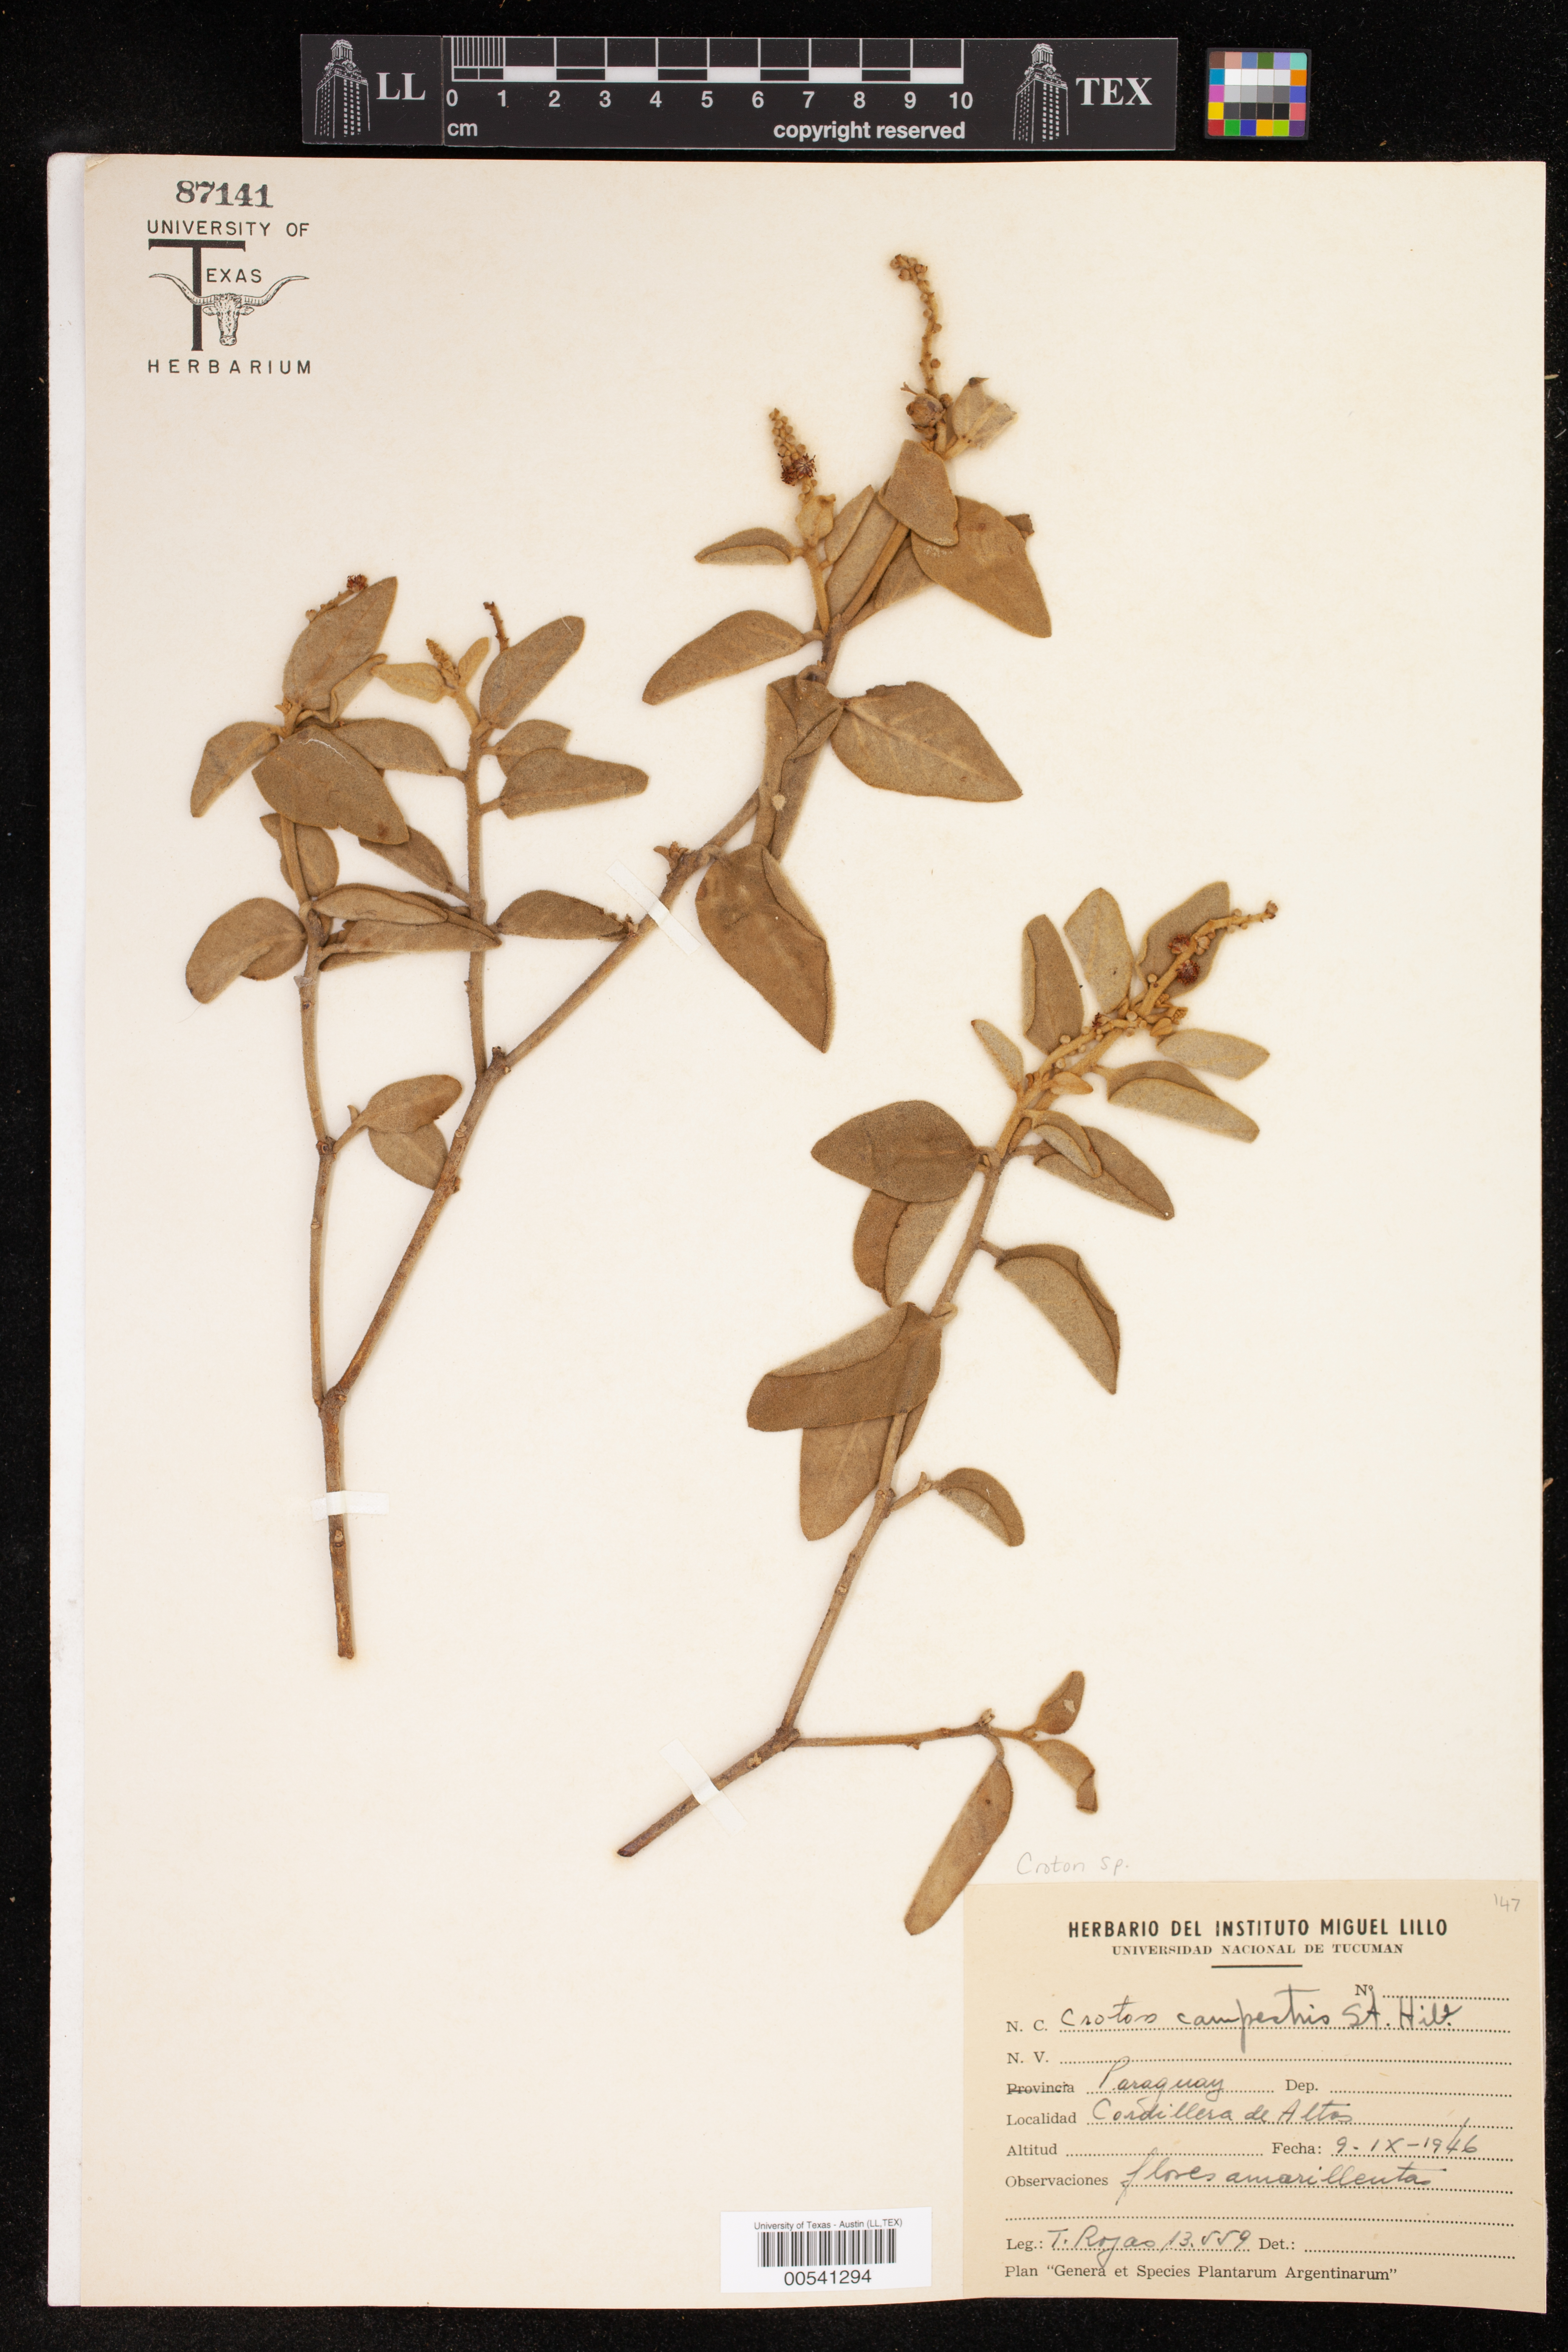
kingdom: Plantae
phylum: Tracheophyta
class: Magnoliopsida
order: Malpighiales
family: Euphorbiaceae
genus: Croton
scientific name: Croton
